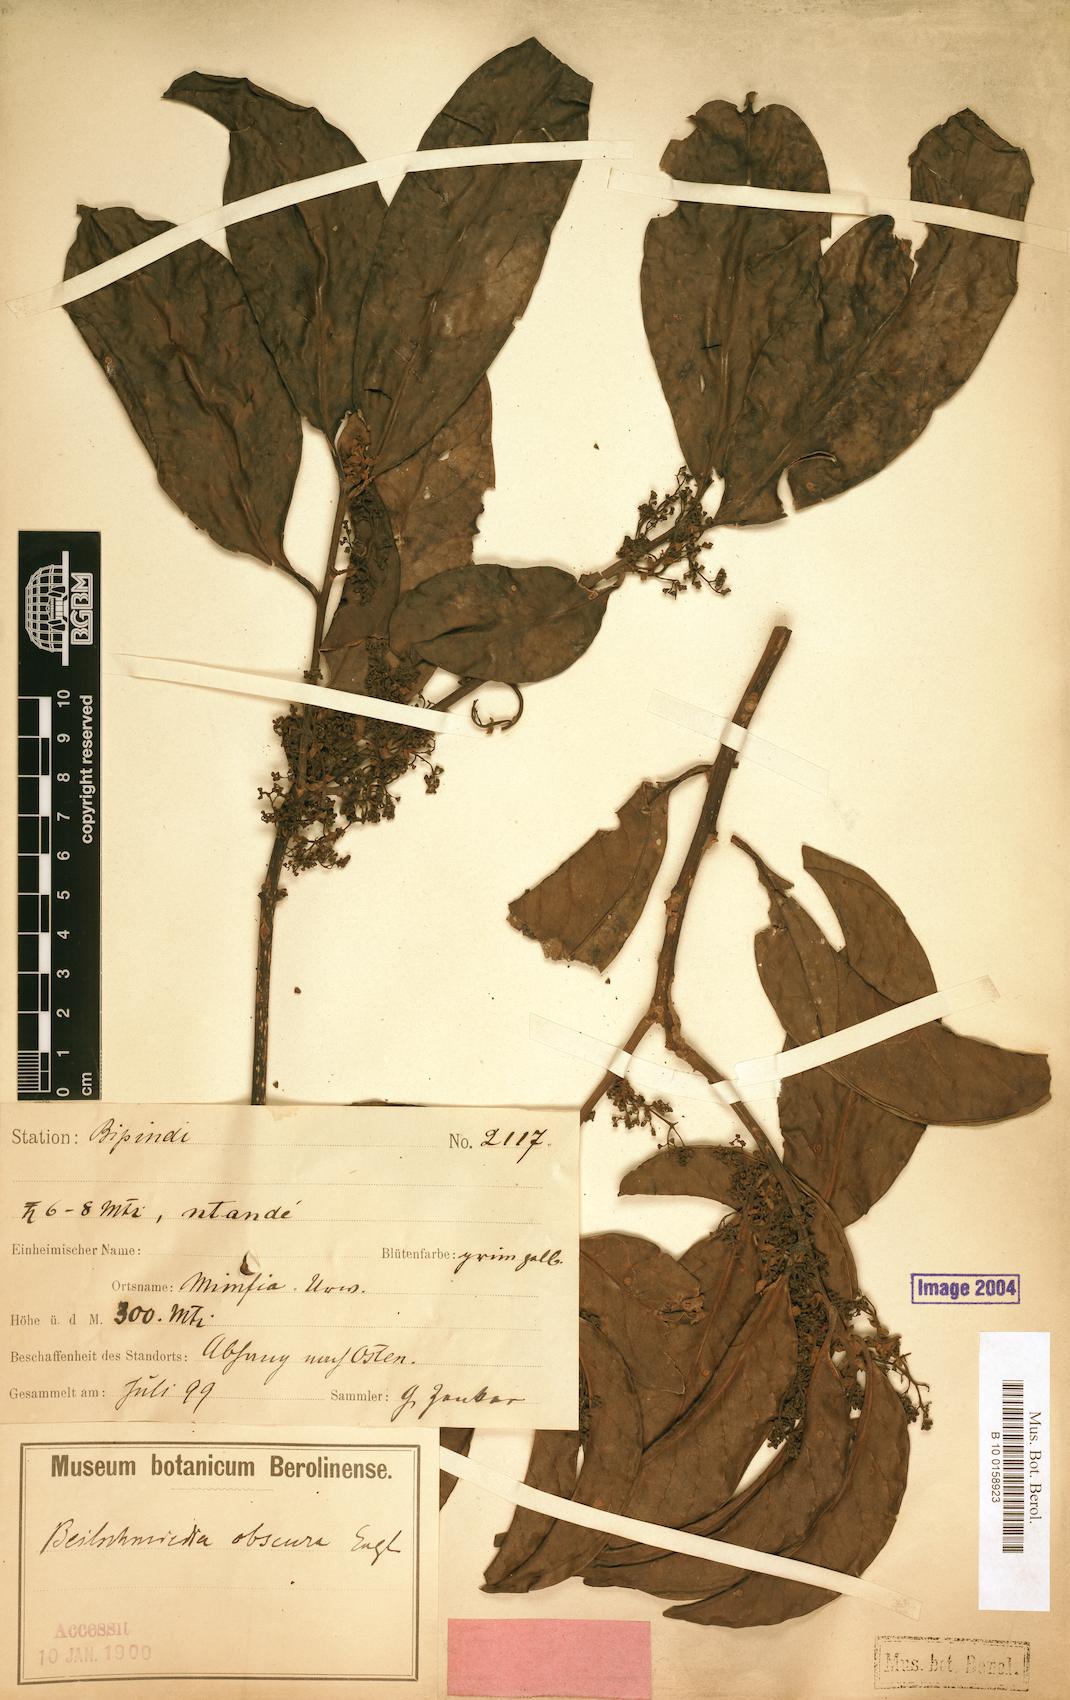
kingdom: Plantae
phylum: Tracheophyta
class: Magnoliopsida
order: Laurales
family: Lauraceae
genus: Beilschmiedia
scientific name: Beilschmiedia gaboonensis
